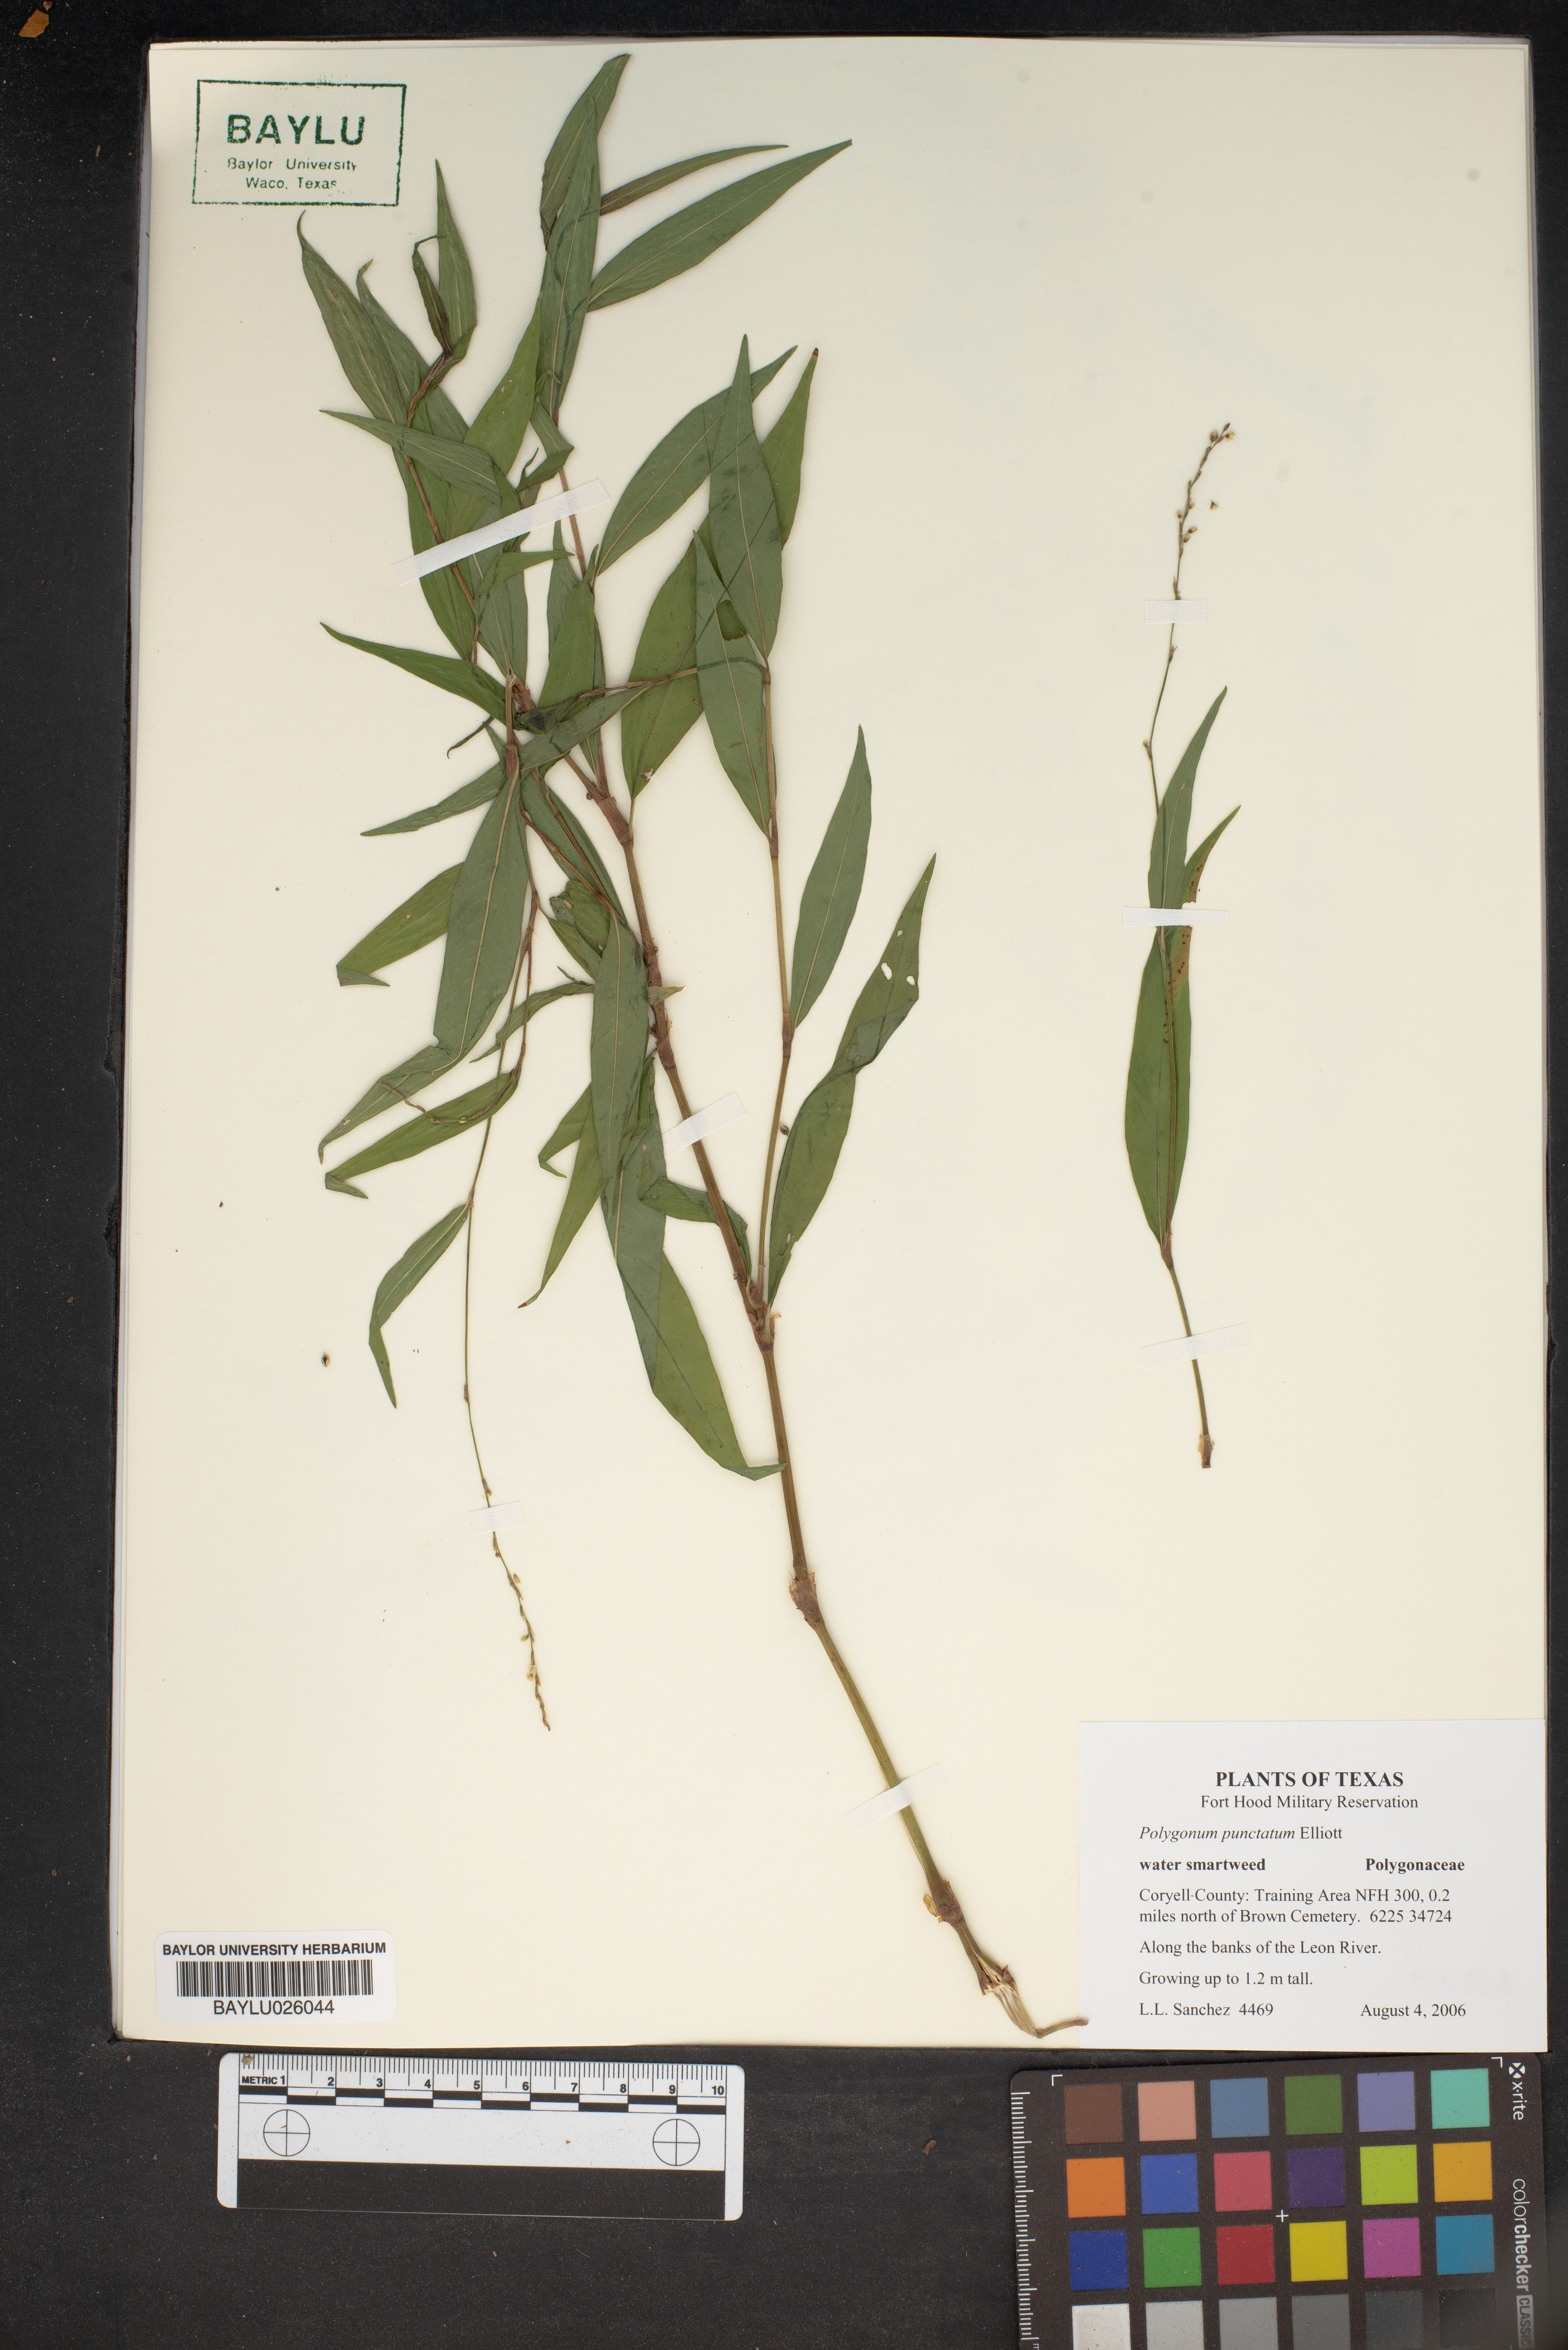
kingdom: Plantae
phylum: Tracheophyta
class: Magnoliopsida
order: Caryophyllales
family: Polygonaceae
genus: Persicaria
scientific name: Persicaria punctata
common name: Dotted smartweed
